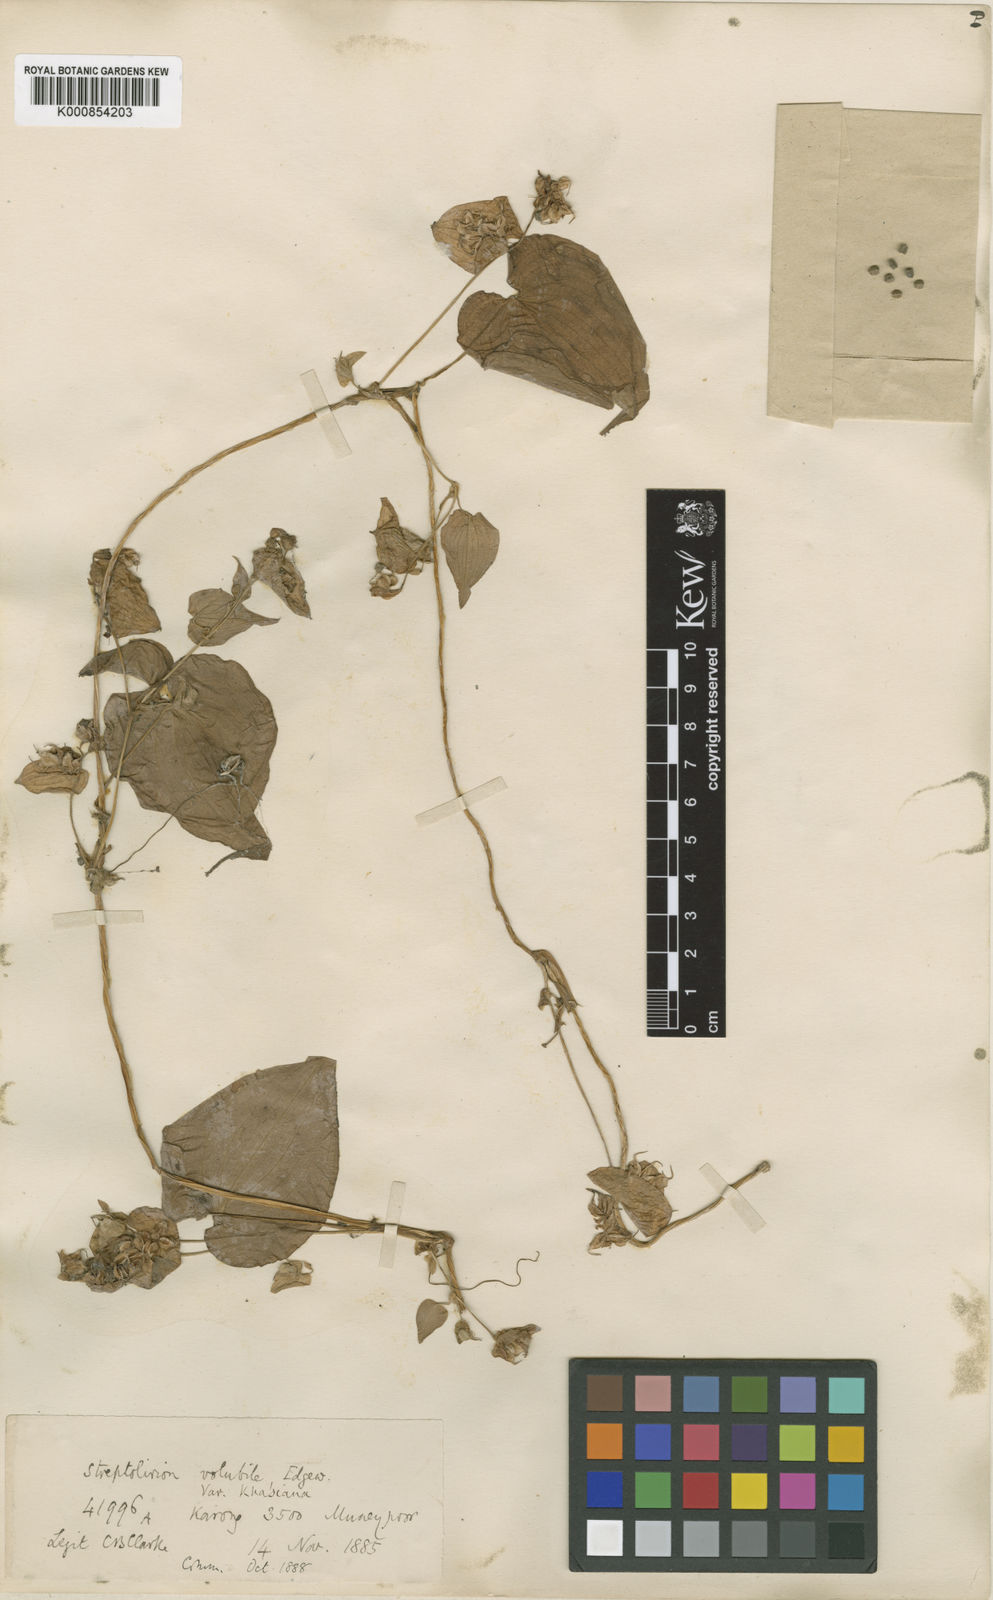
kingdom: Plantae
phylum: Tracheophyta
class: Liliopsida
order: Commelinales
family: Commelinaceae
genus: Streptolirion
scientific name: Streptolirion volubile
